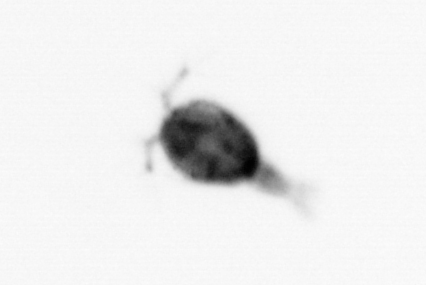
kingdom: Animalia
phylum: Arthropoda
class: Copepoda
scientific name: Copepoda
